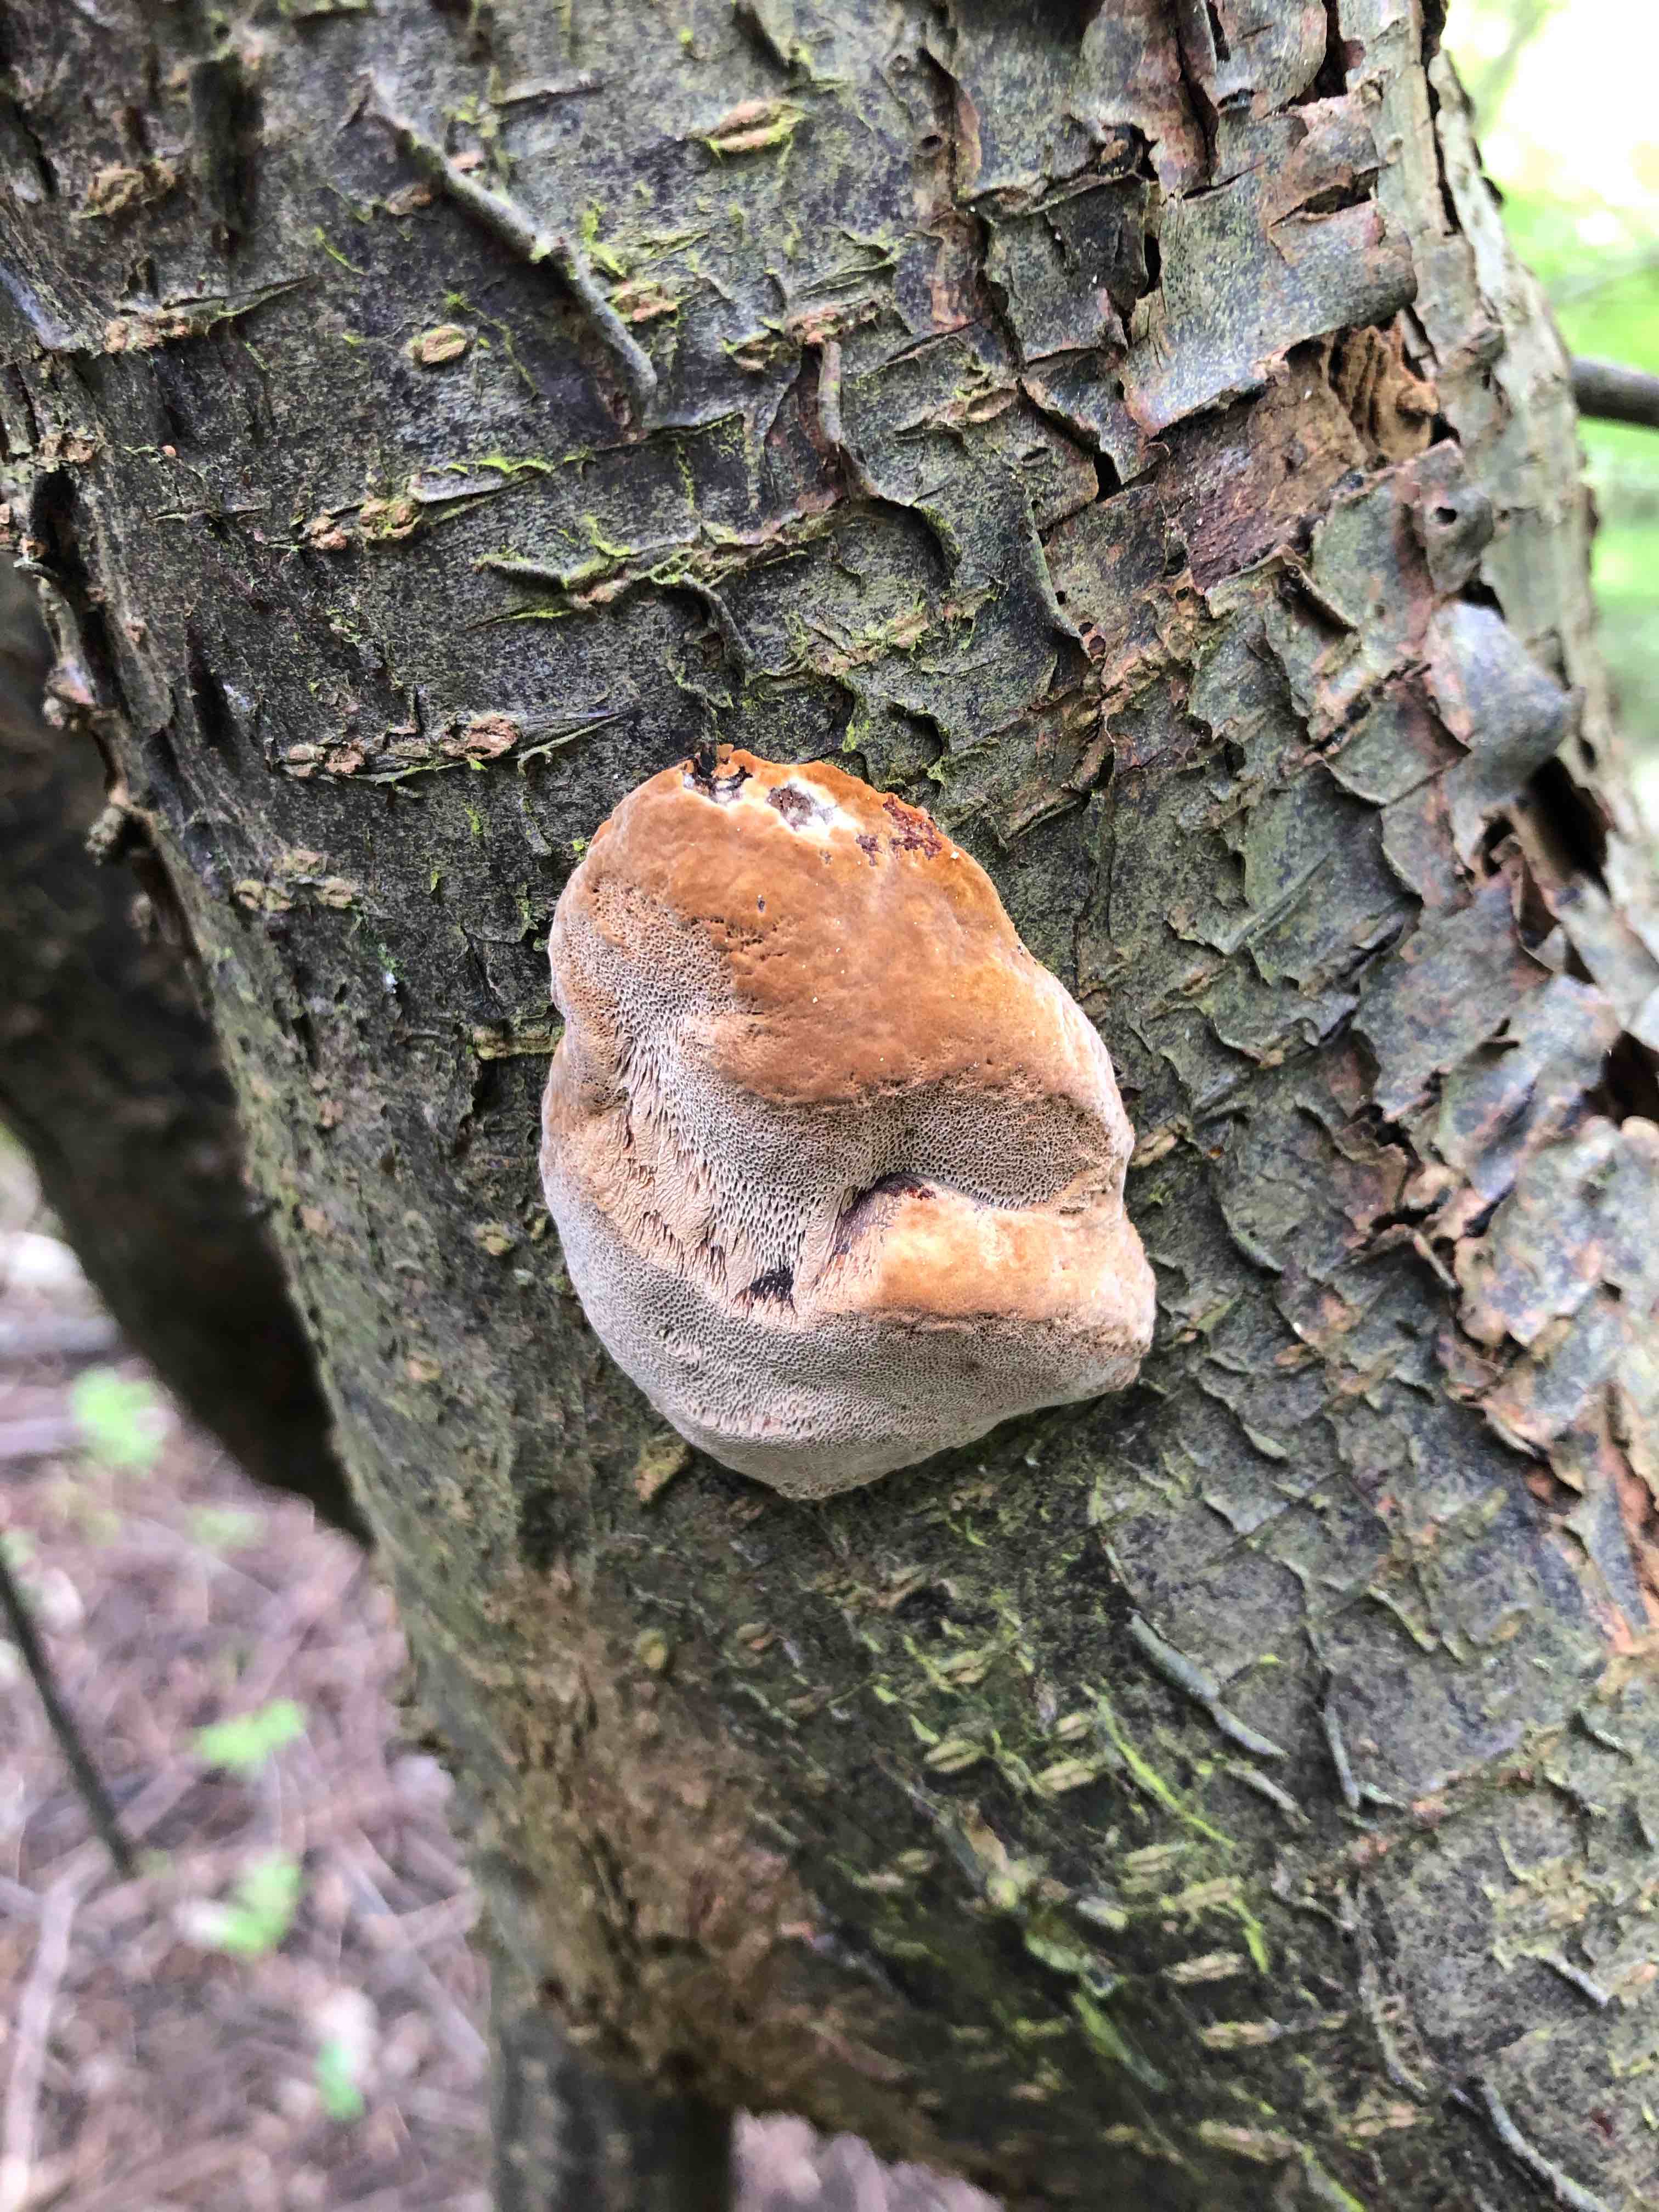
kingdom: Fungi
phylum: Basidiomycota
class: Agaricomycetes
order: Hymenochaetales
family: Hymenochaetaceae
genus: Phellinus
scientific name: Phellinus pomaceus
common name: blomme-ildporesvamp
